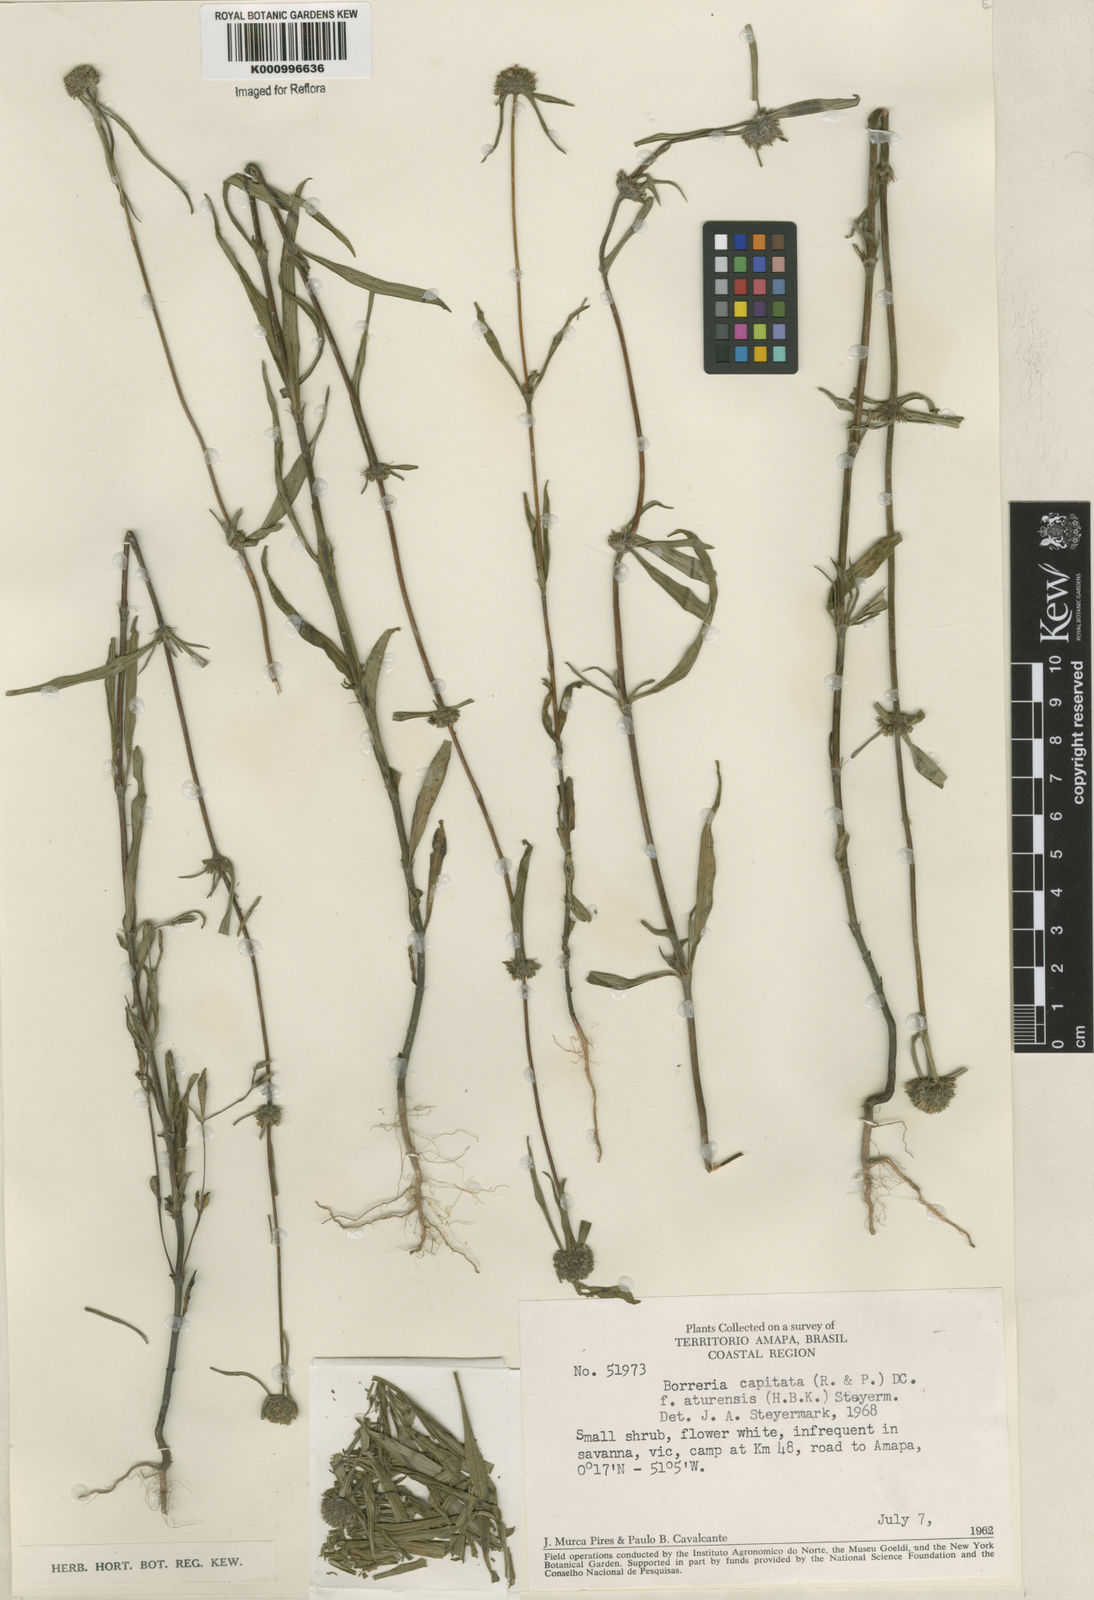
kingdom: Plantae
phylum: Tracheophyta
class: Magnoliopsida
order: Gentianales
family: Rubiaceae
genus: Spermacoce
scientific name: Spermacoce
